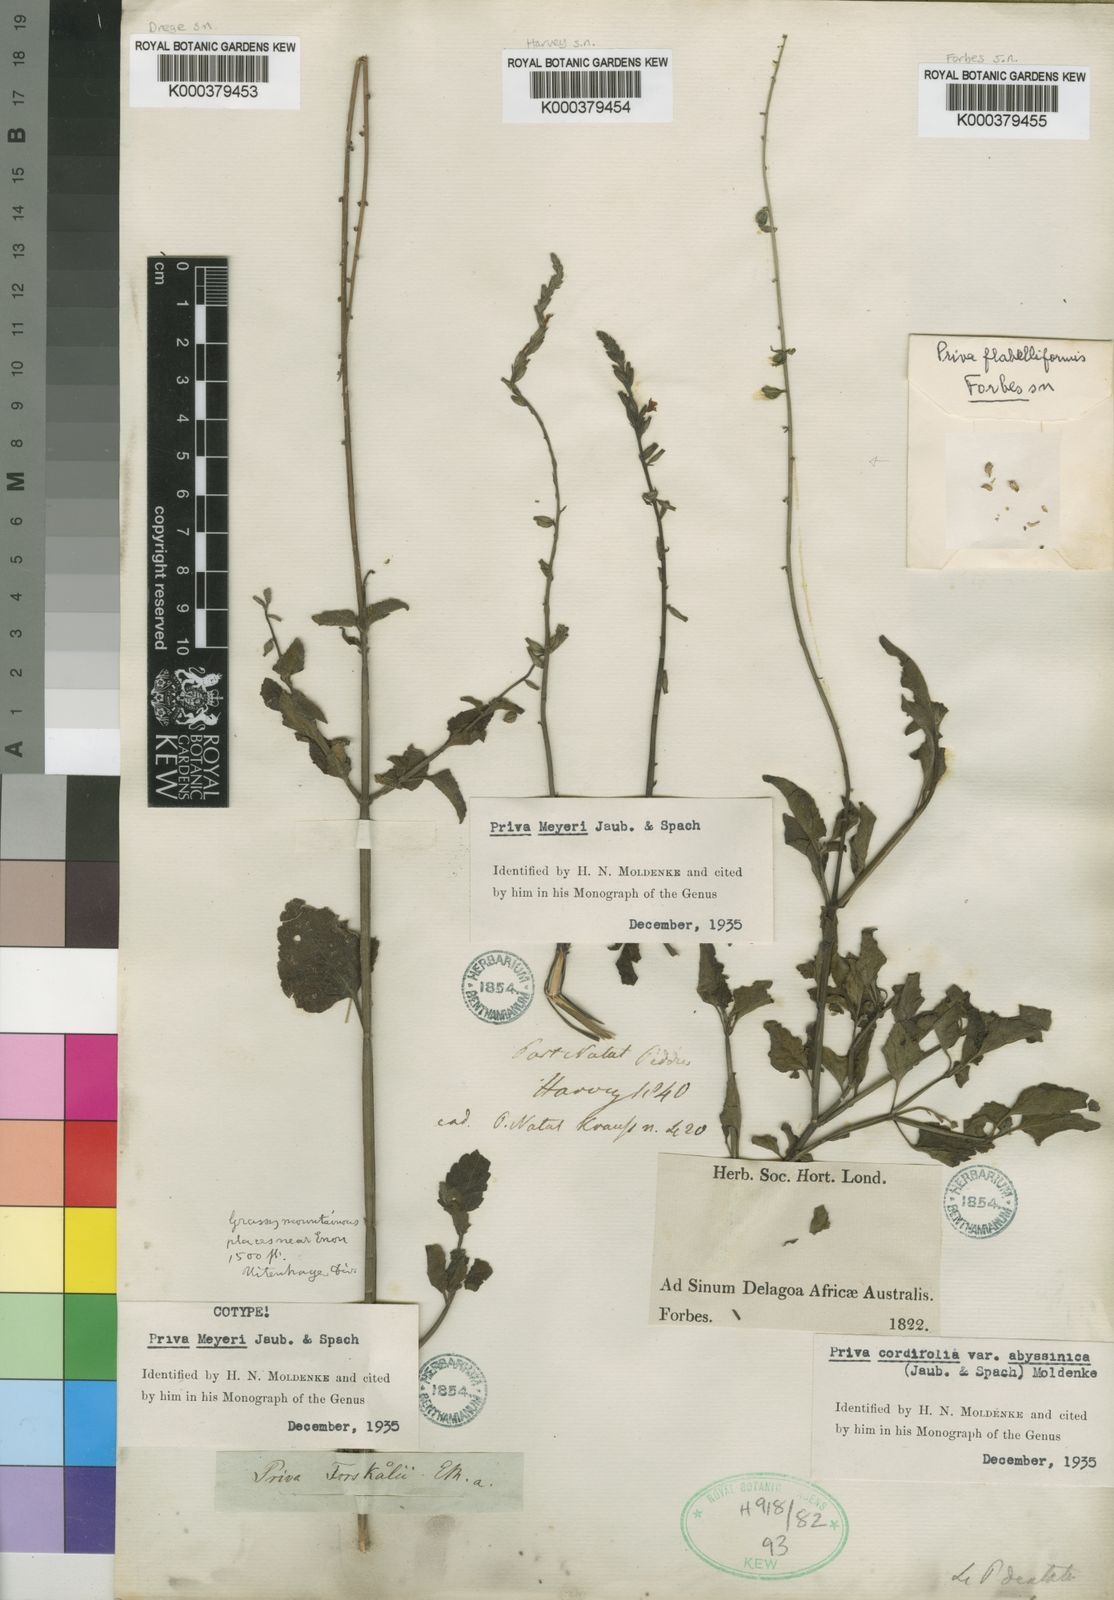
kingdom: Plantae
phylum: Tracheophyta
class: Magnoliopsida
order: Lamiales
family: Verbenaceae
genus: Priva
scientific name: Priva meyeri
